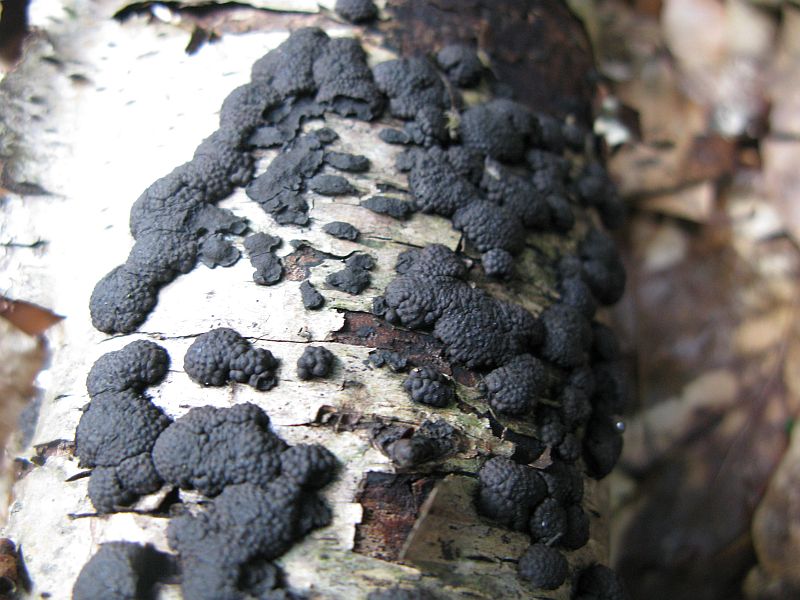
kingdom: Fungi
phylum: Ascomycota
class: Sordariomycetes
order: Xylariales
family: Hypoxylaceae
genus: Jackrogersella
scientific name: Jackrogersella multiformis
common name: foranderlig kulbær
